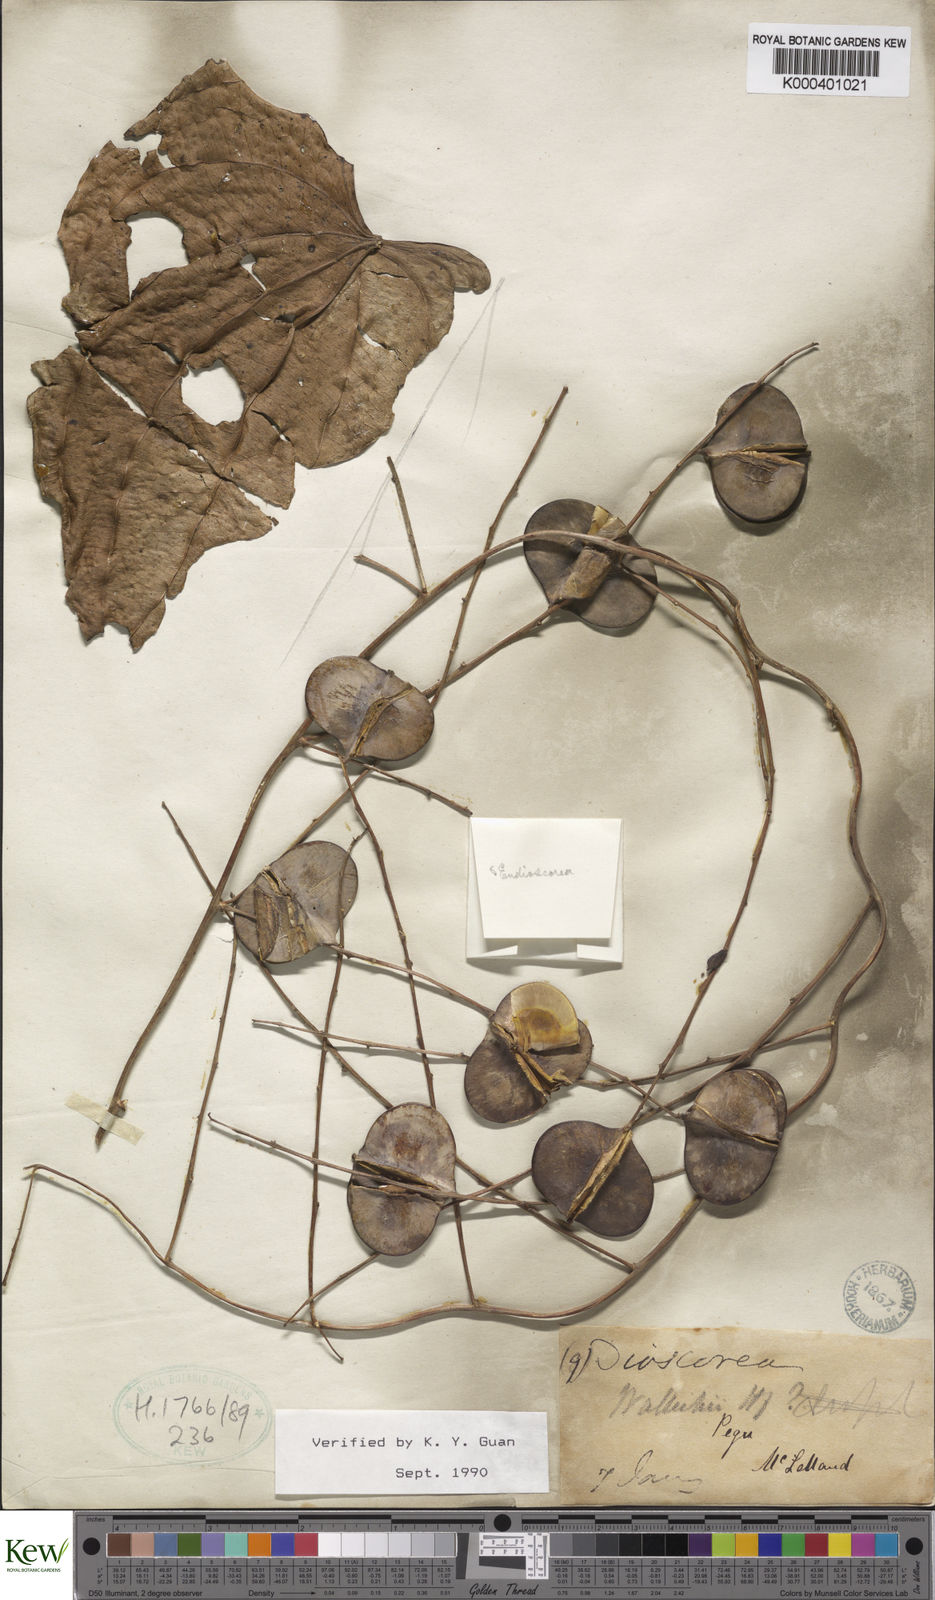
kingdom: Plantae
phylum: Tracheophyta
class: Liliopsida
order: Dioscoreales
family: Dioscoreaceae
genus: Dioscorea
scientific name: Dioscorea wallichii
